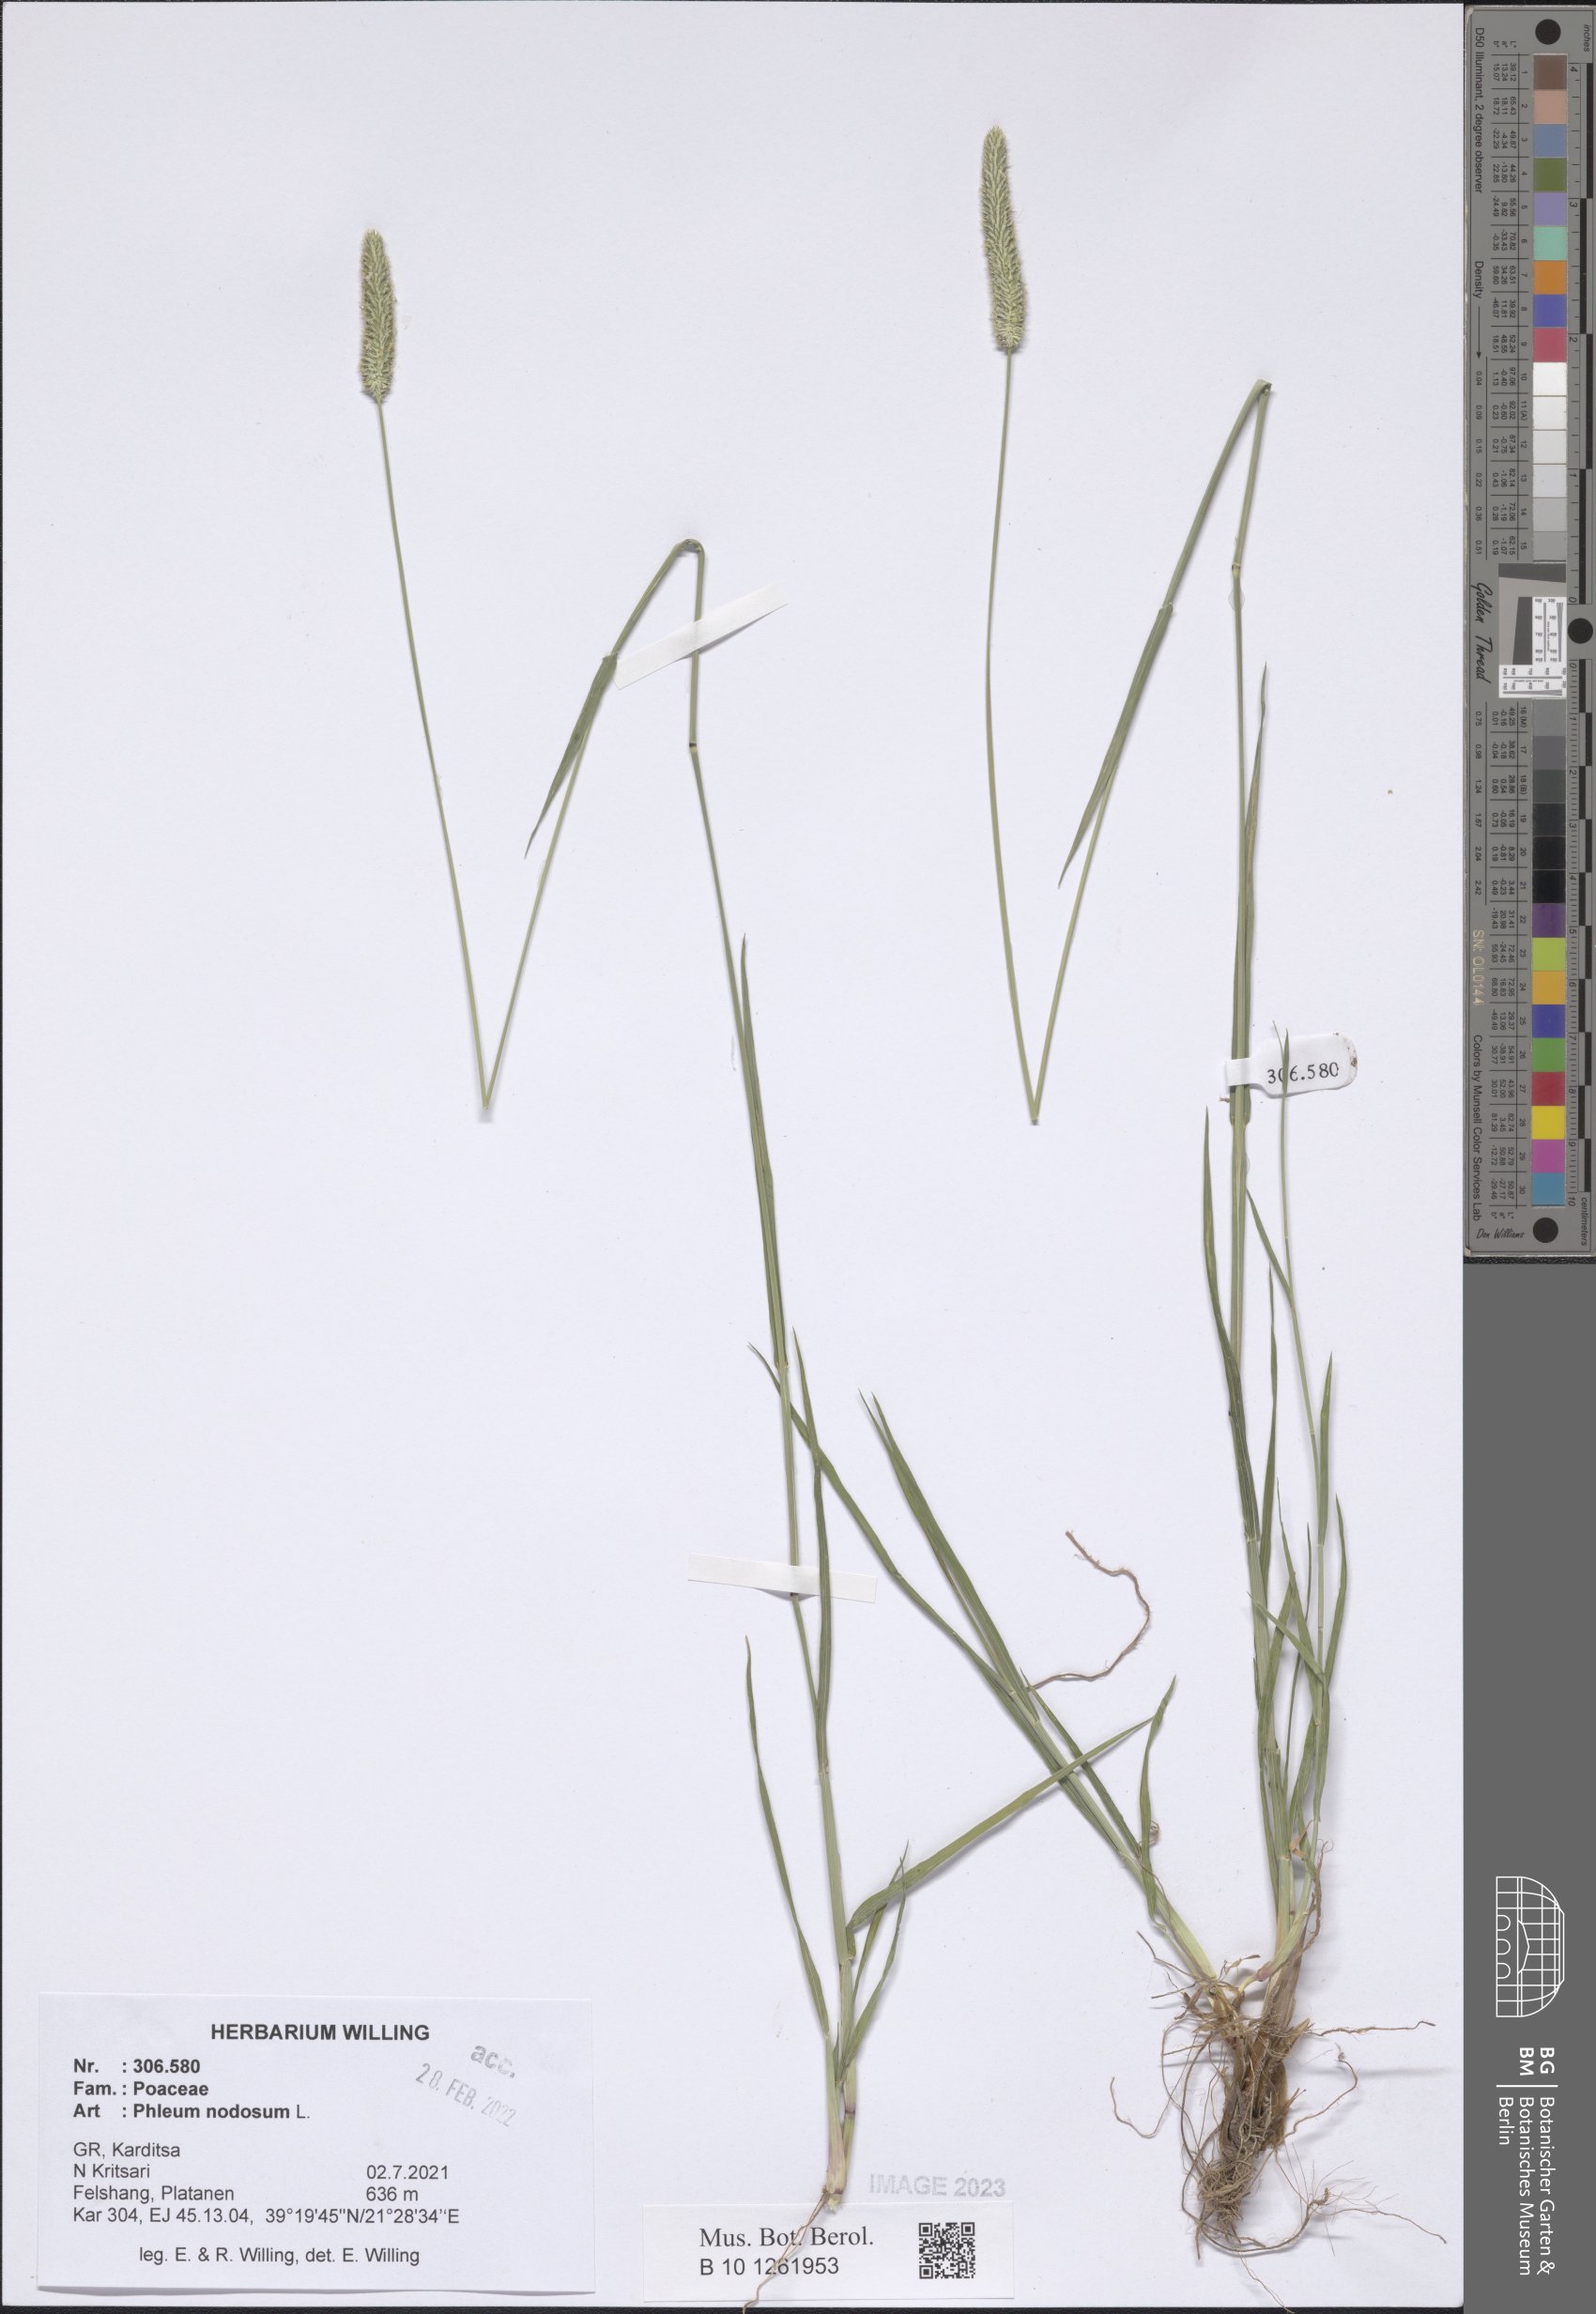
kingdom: Plantae
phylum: Tracheophyta
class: Liliopsida
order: Poales
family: Poaceae
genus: Phleum
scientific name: Phleum pratense
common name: Timothy grass
